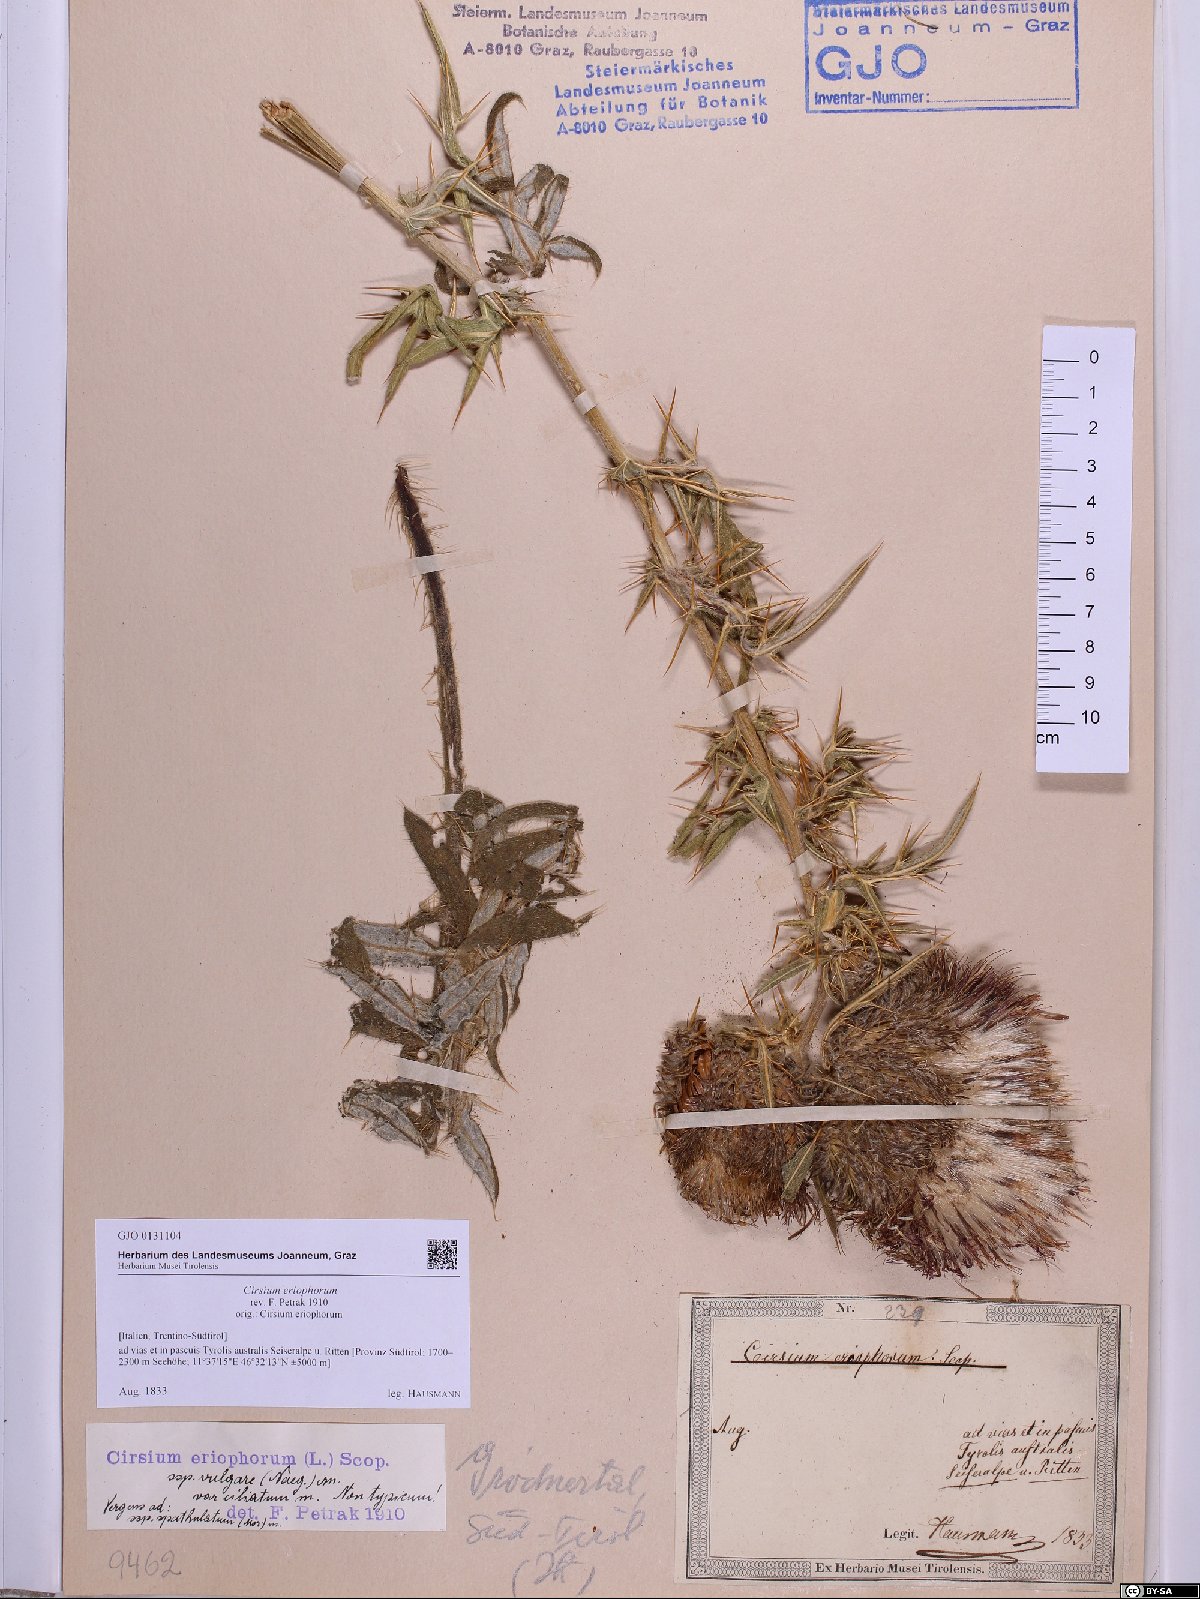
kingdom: Plantae
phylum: Tracheophyta
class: Magnoliopsida
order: Asterales
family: Asteraceae
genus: Lophiolepis
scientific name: Lophiolepis eriophora
